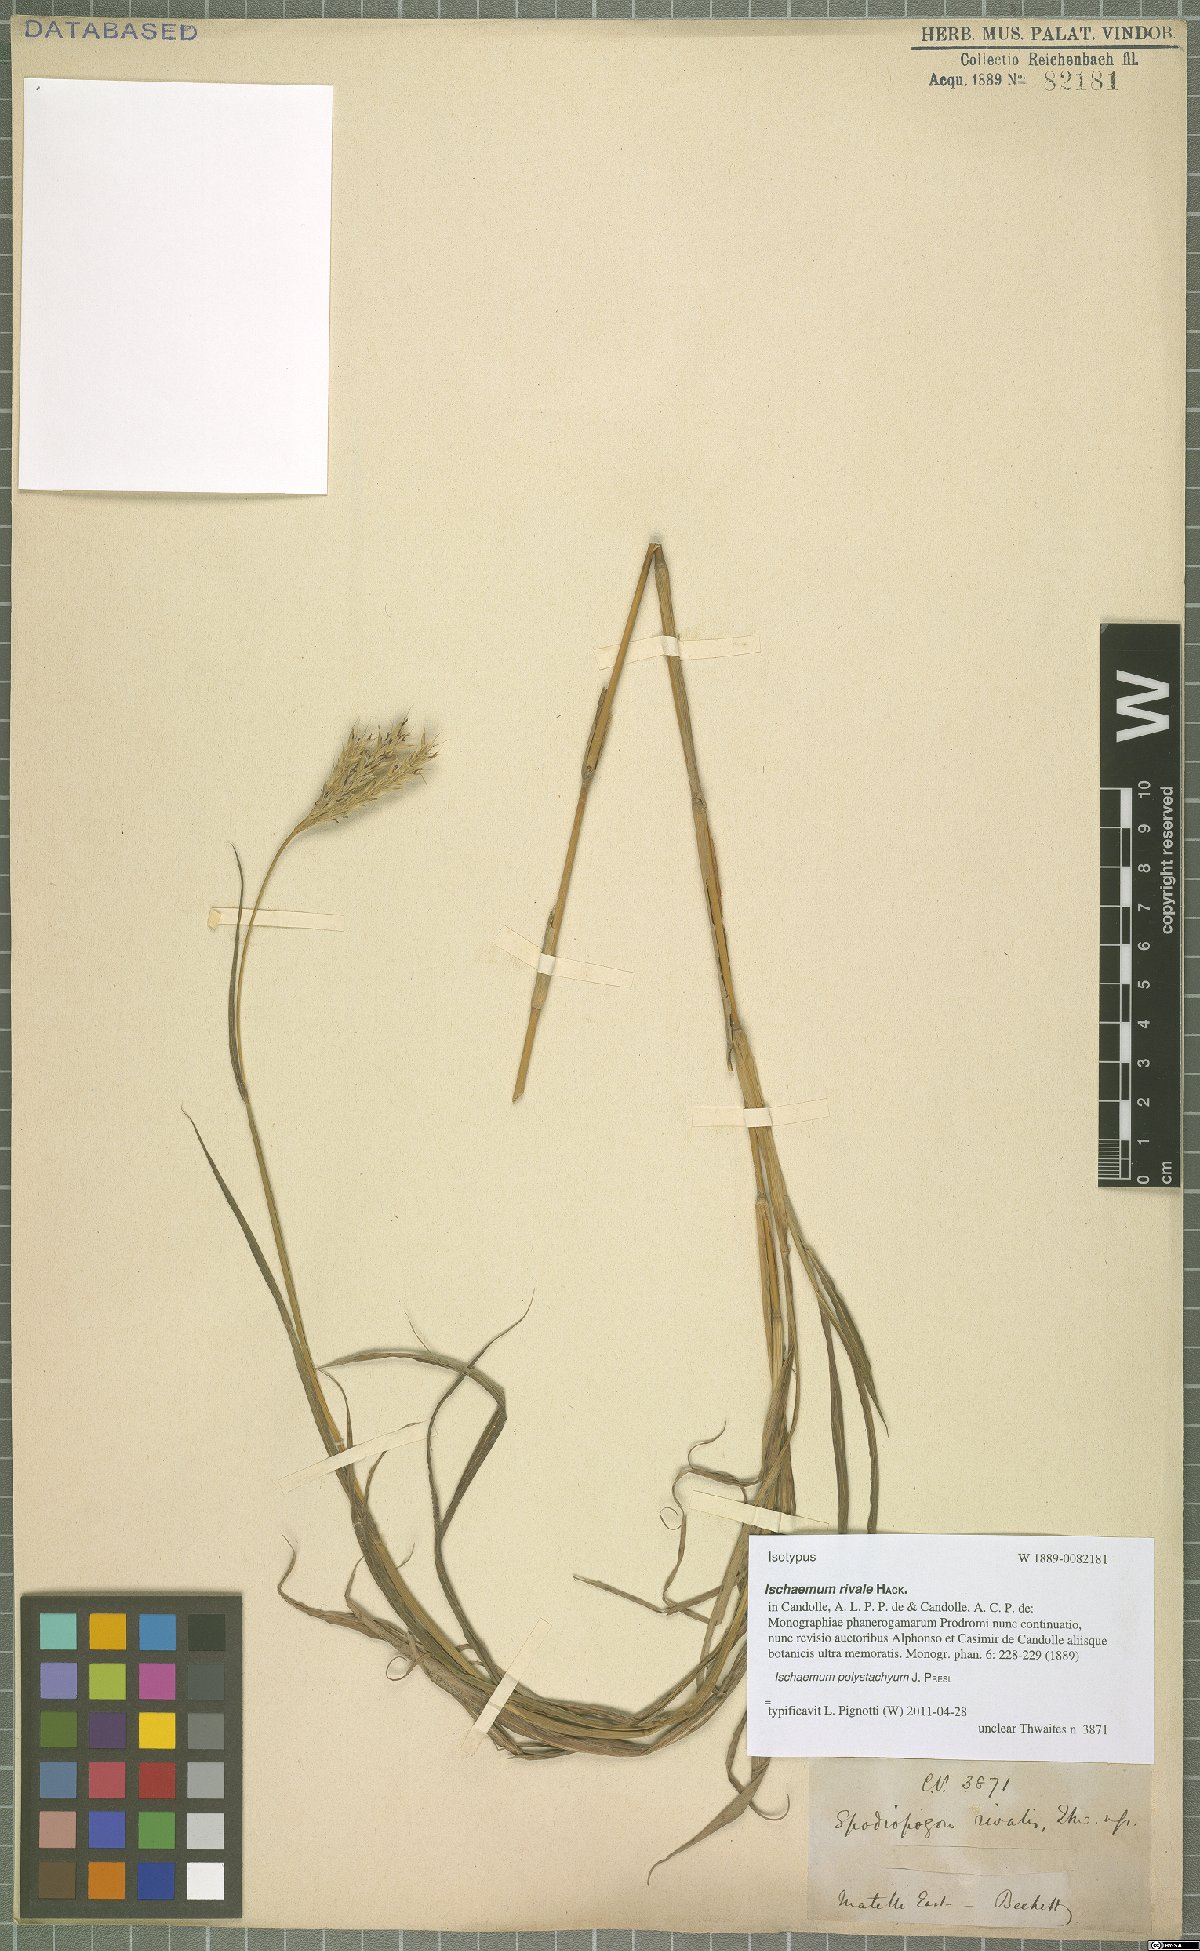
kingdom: Plantae
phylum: Tracheophyta
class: Liliopsida
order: Poales
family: Poaceae
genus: Ischaemum
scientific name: Ischaemum polystachyum
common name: Paddle grass
